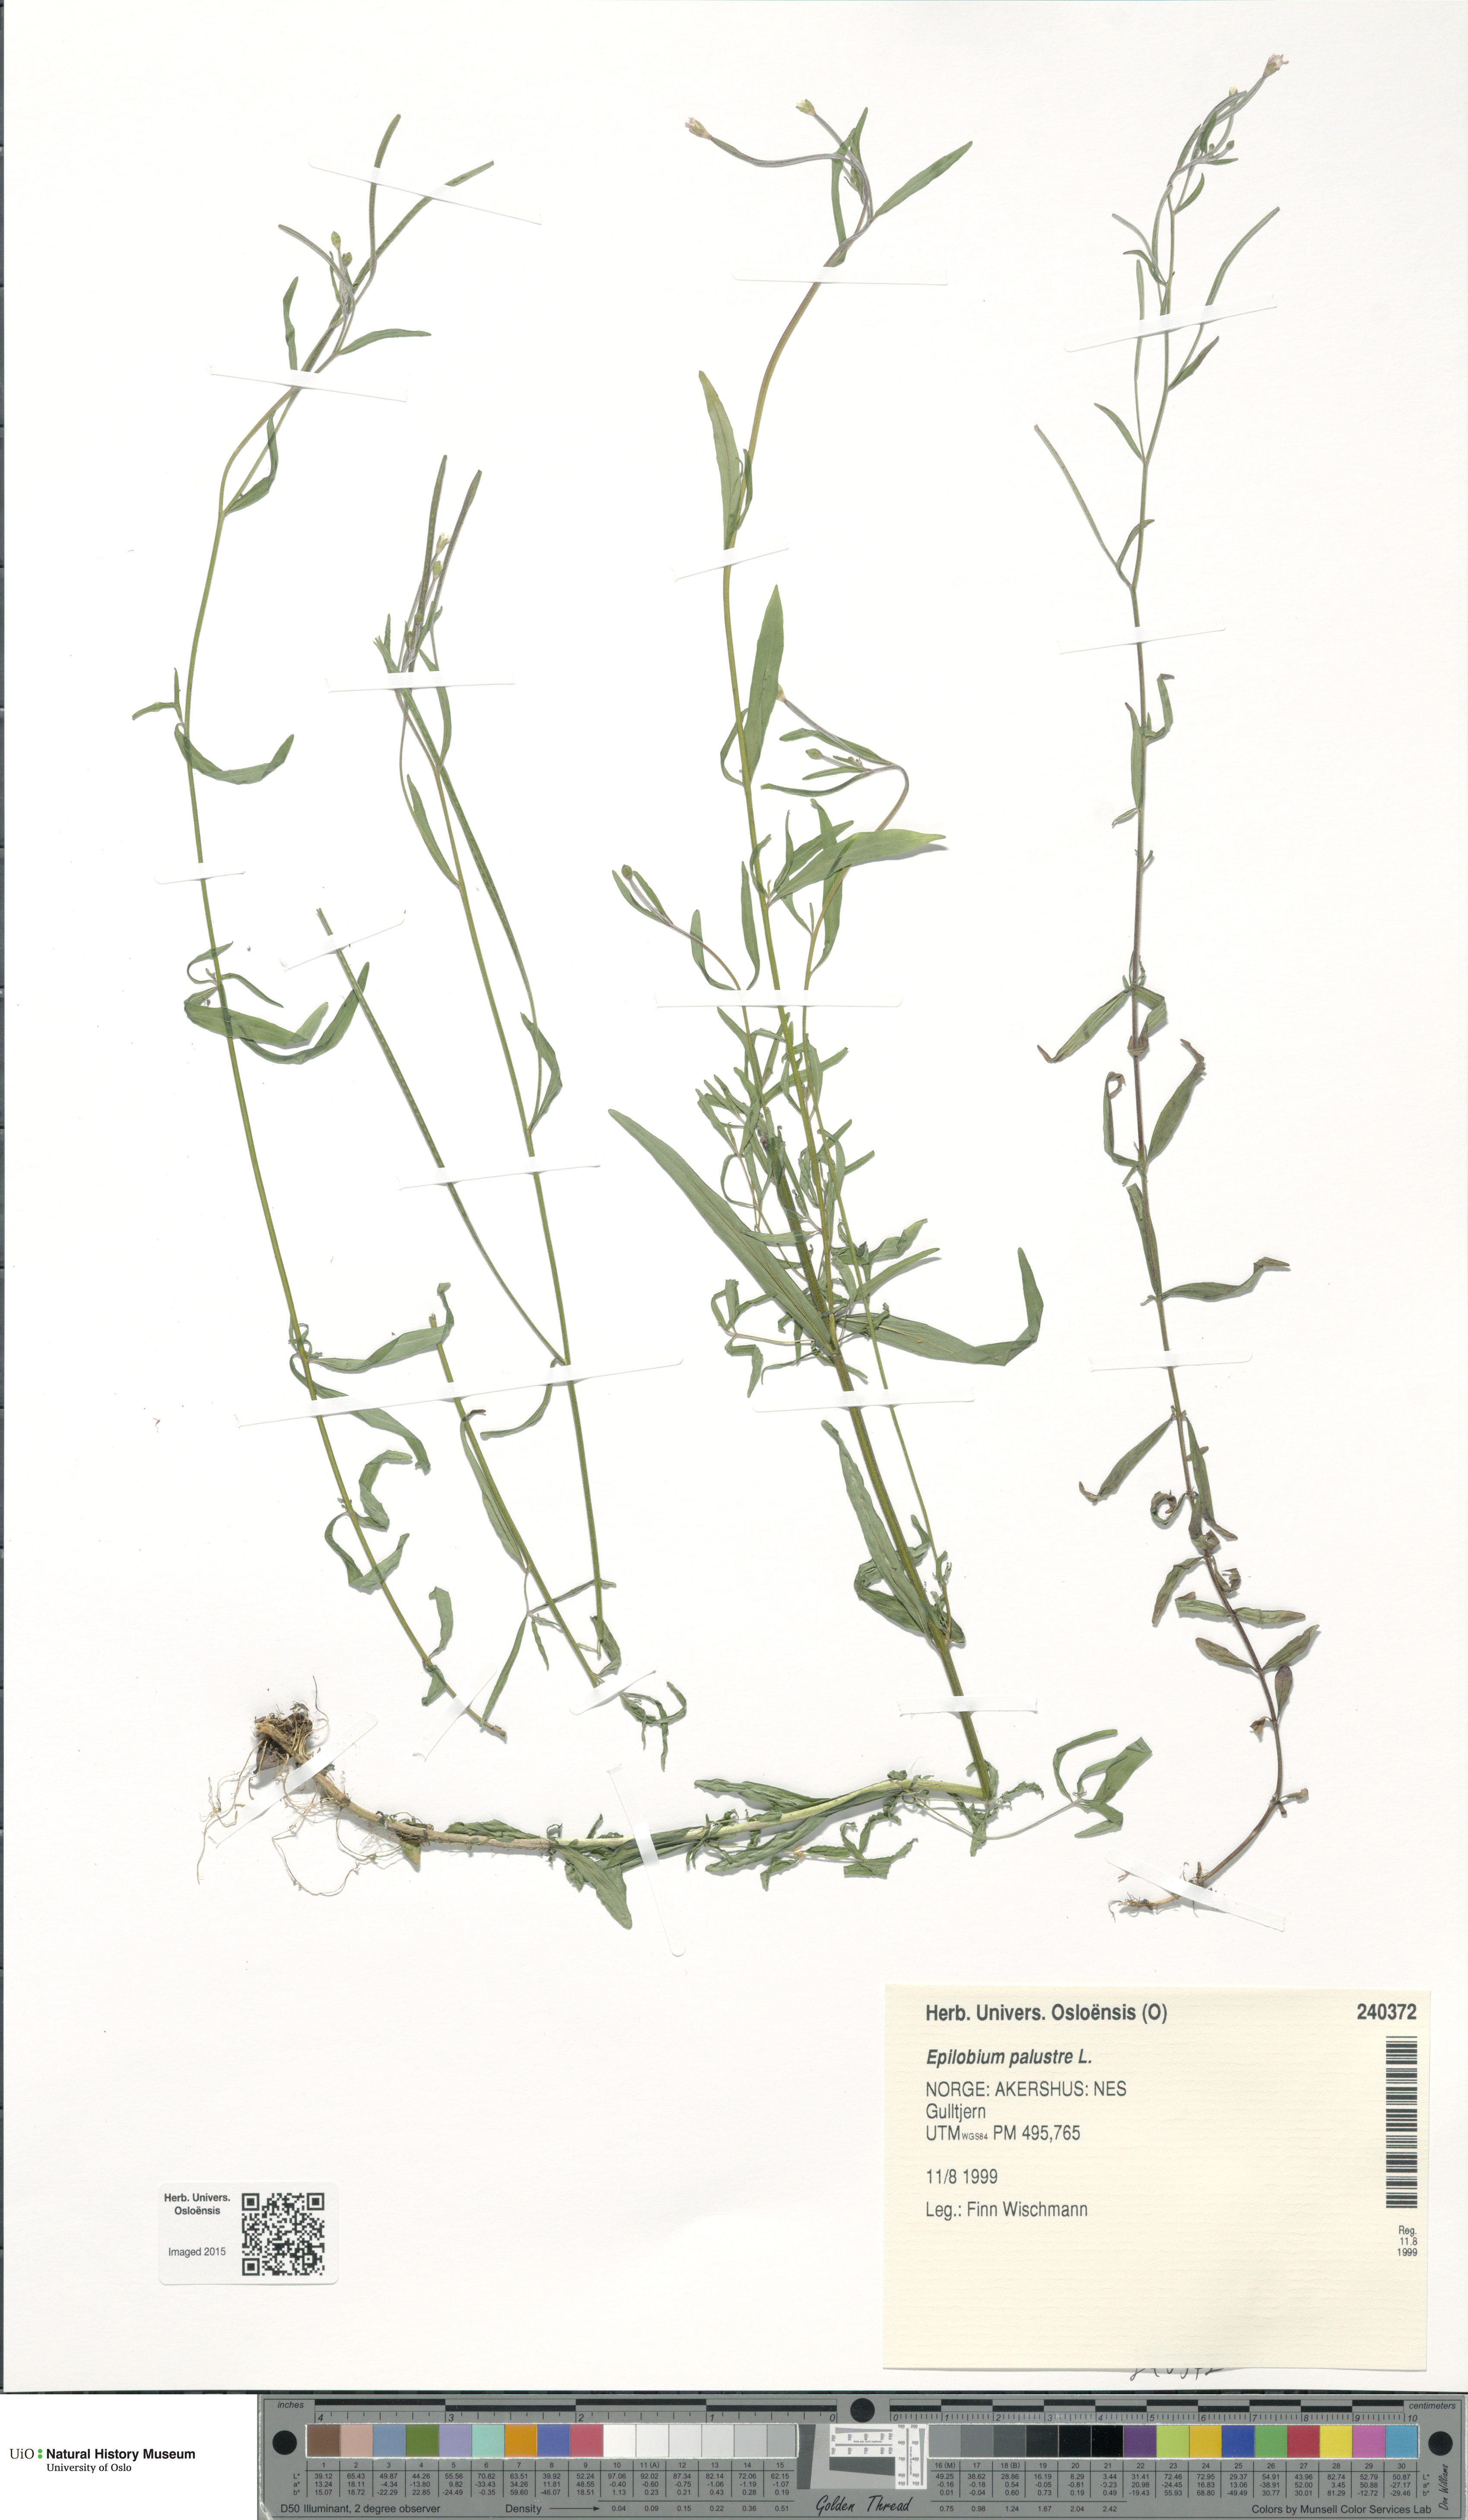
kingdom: Plantae
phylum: Tracheophyta
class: Magnoliopsida
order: Myrtales
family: Onagraceae
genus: Epilobium
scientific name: Epilobium palustre
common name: Marsh willowherb
